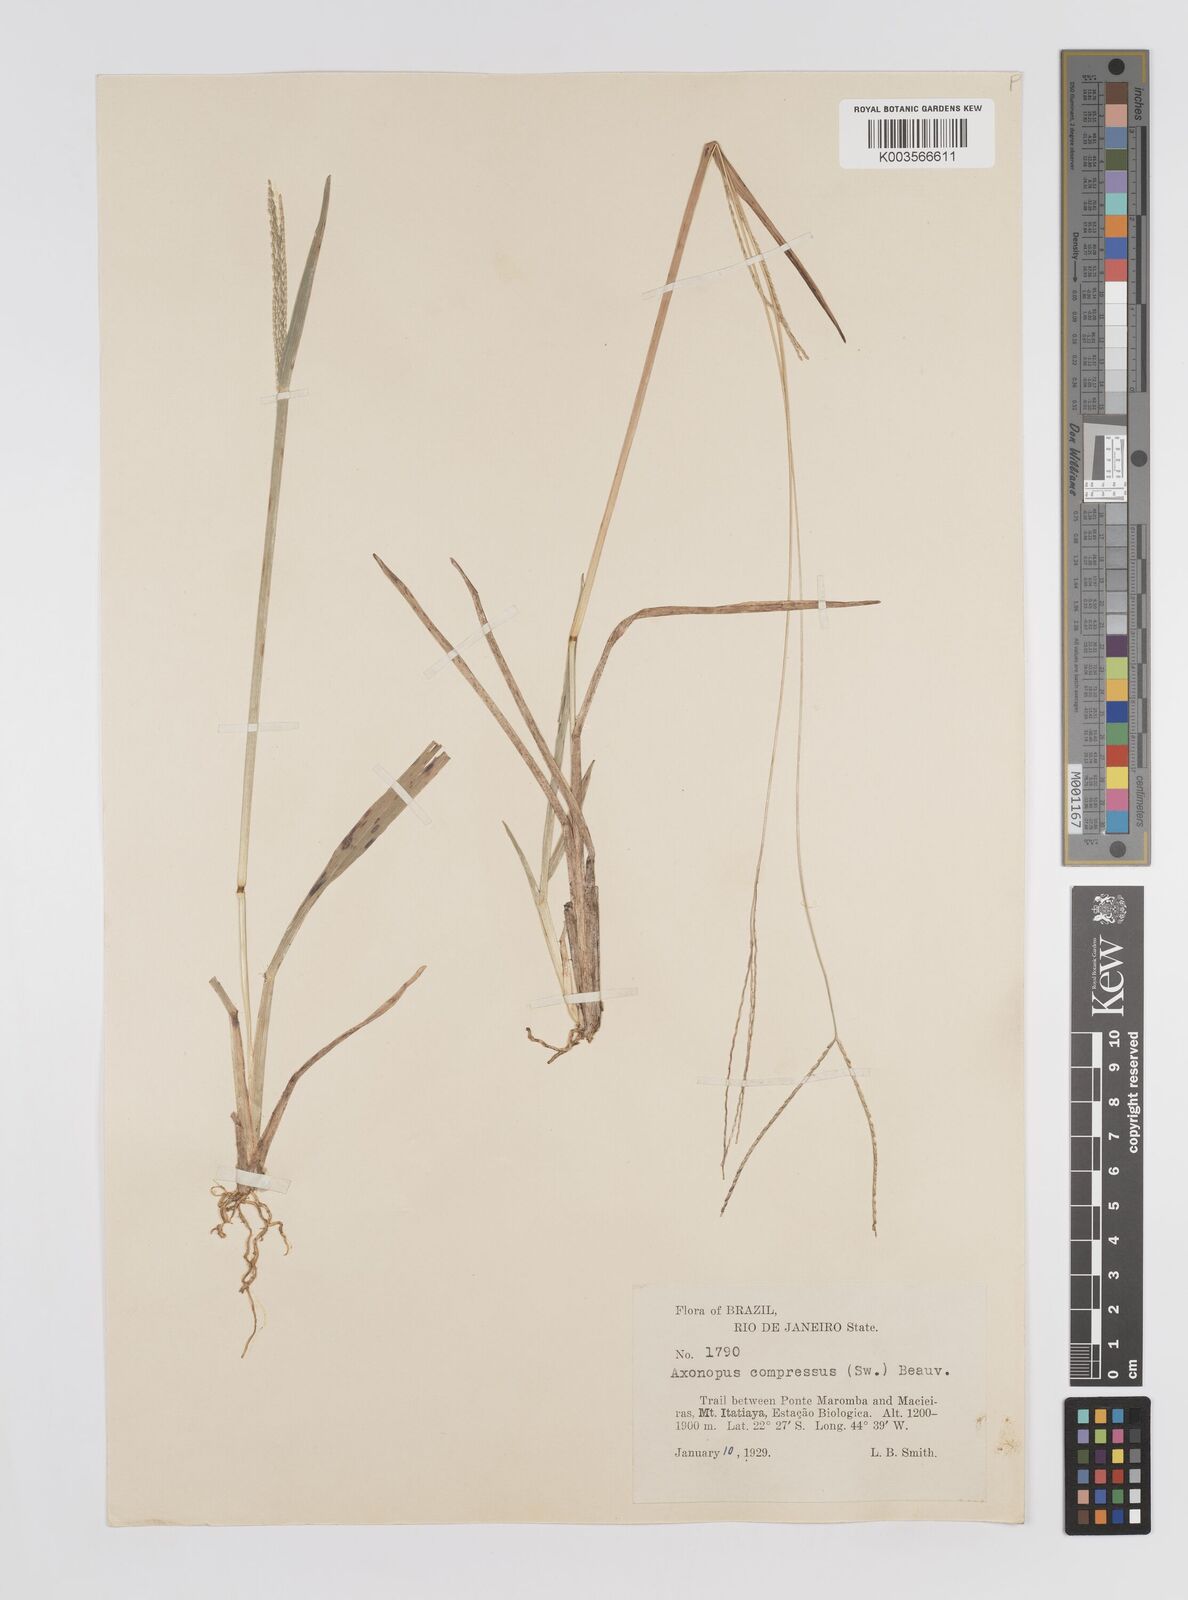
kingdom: Plantae
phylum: Tracheophyta
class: Liliopsida
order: Poales
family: Poaceae
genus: Axonopus
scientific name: Axonopus compressus
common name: American carpet grass
